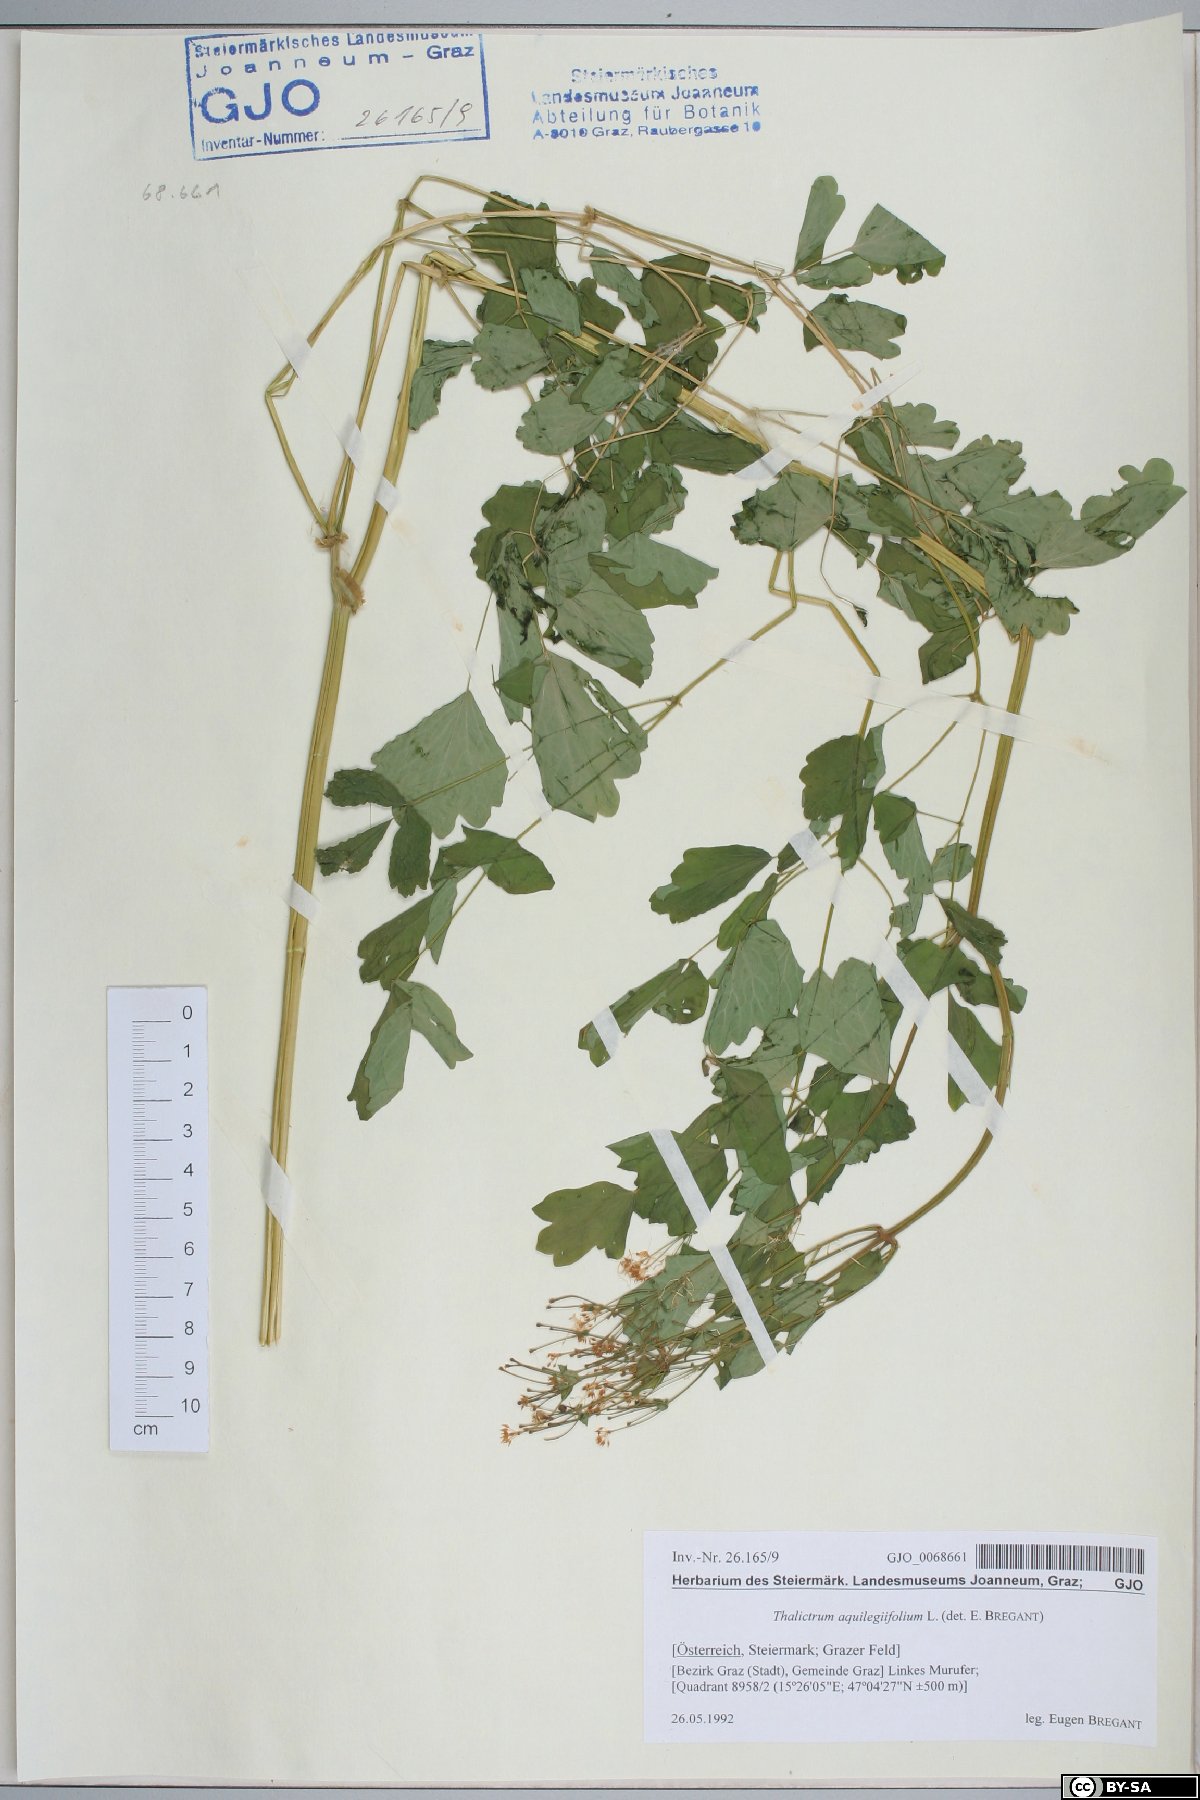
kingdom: Plantae
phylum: Tracheophyta
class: Magnoliopsida
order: Ranunculales
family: Ranunculaceae
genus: Thalictrum
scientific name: Thalictrum aquilegiifolium
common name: French meadow-rue
